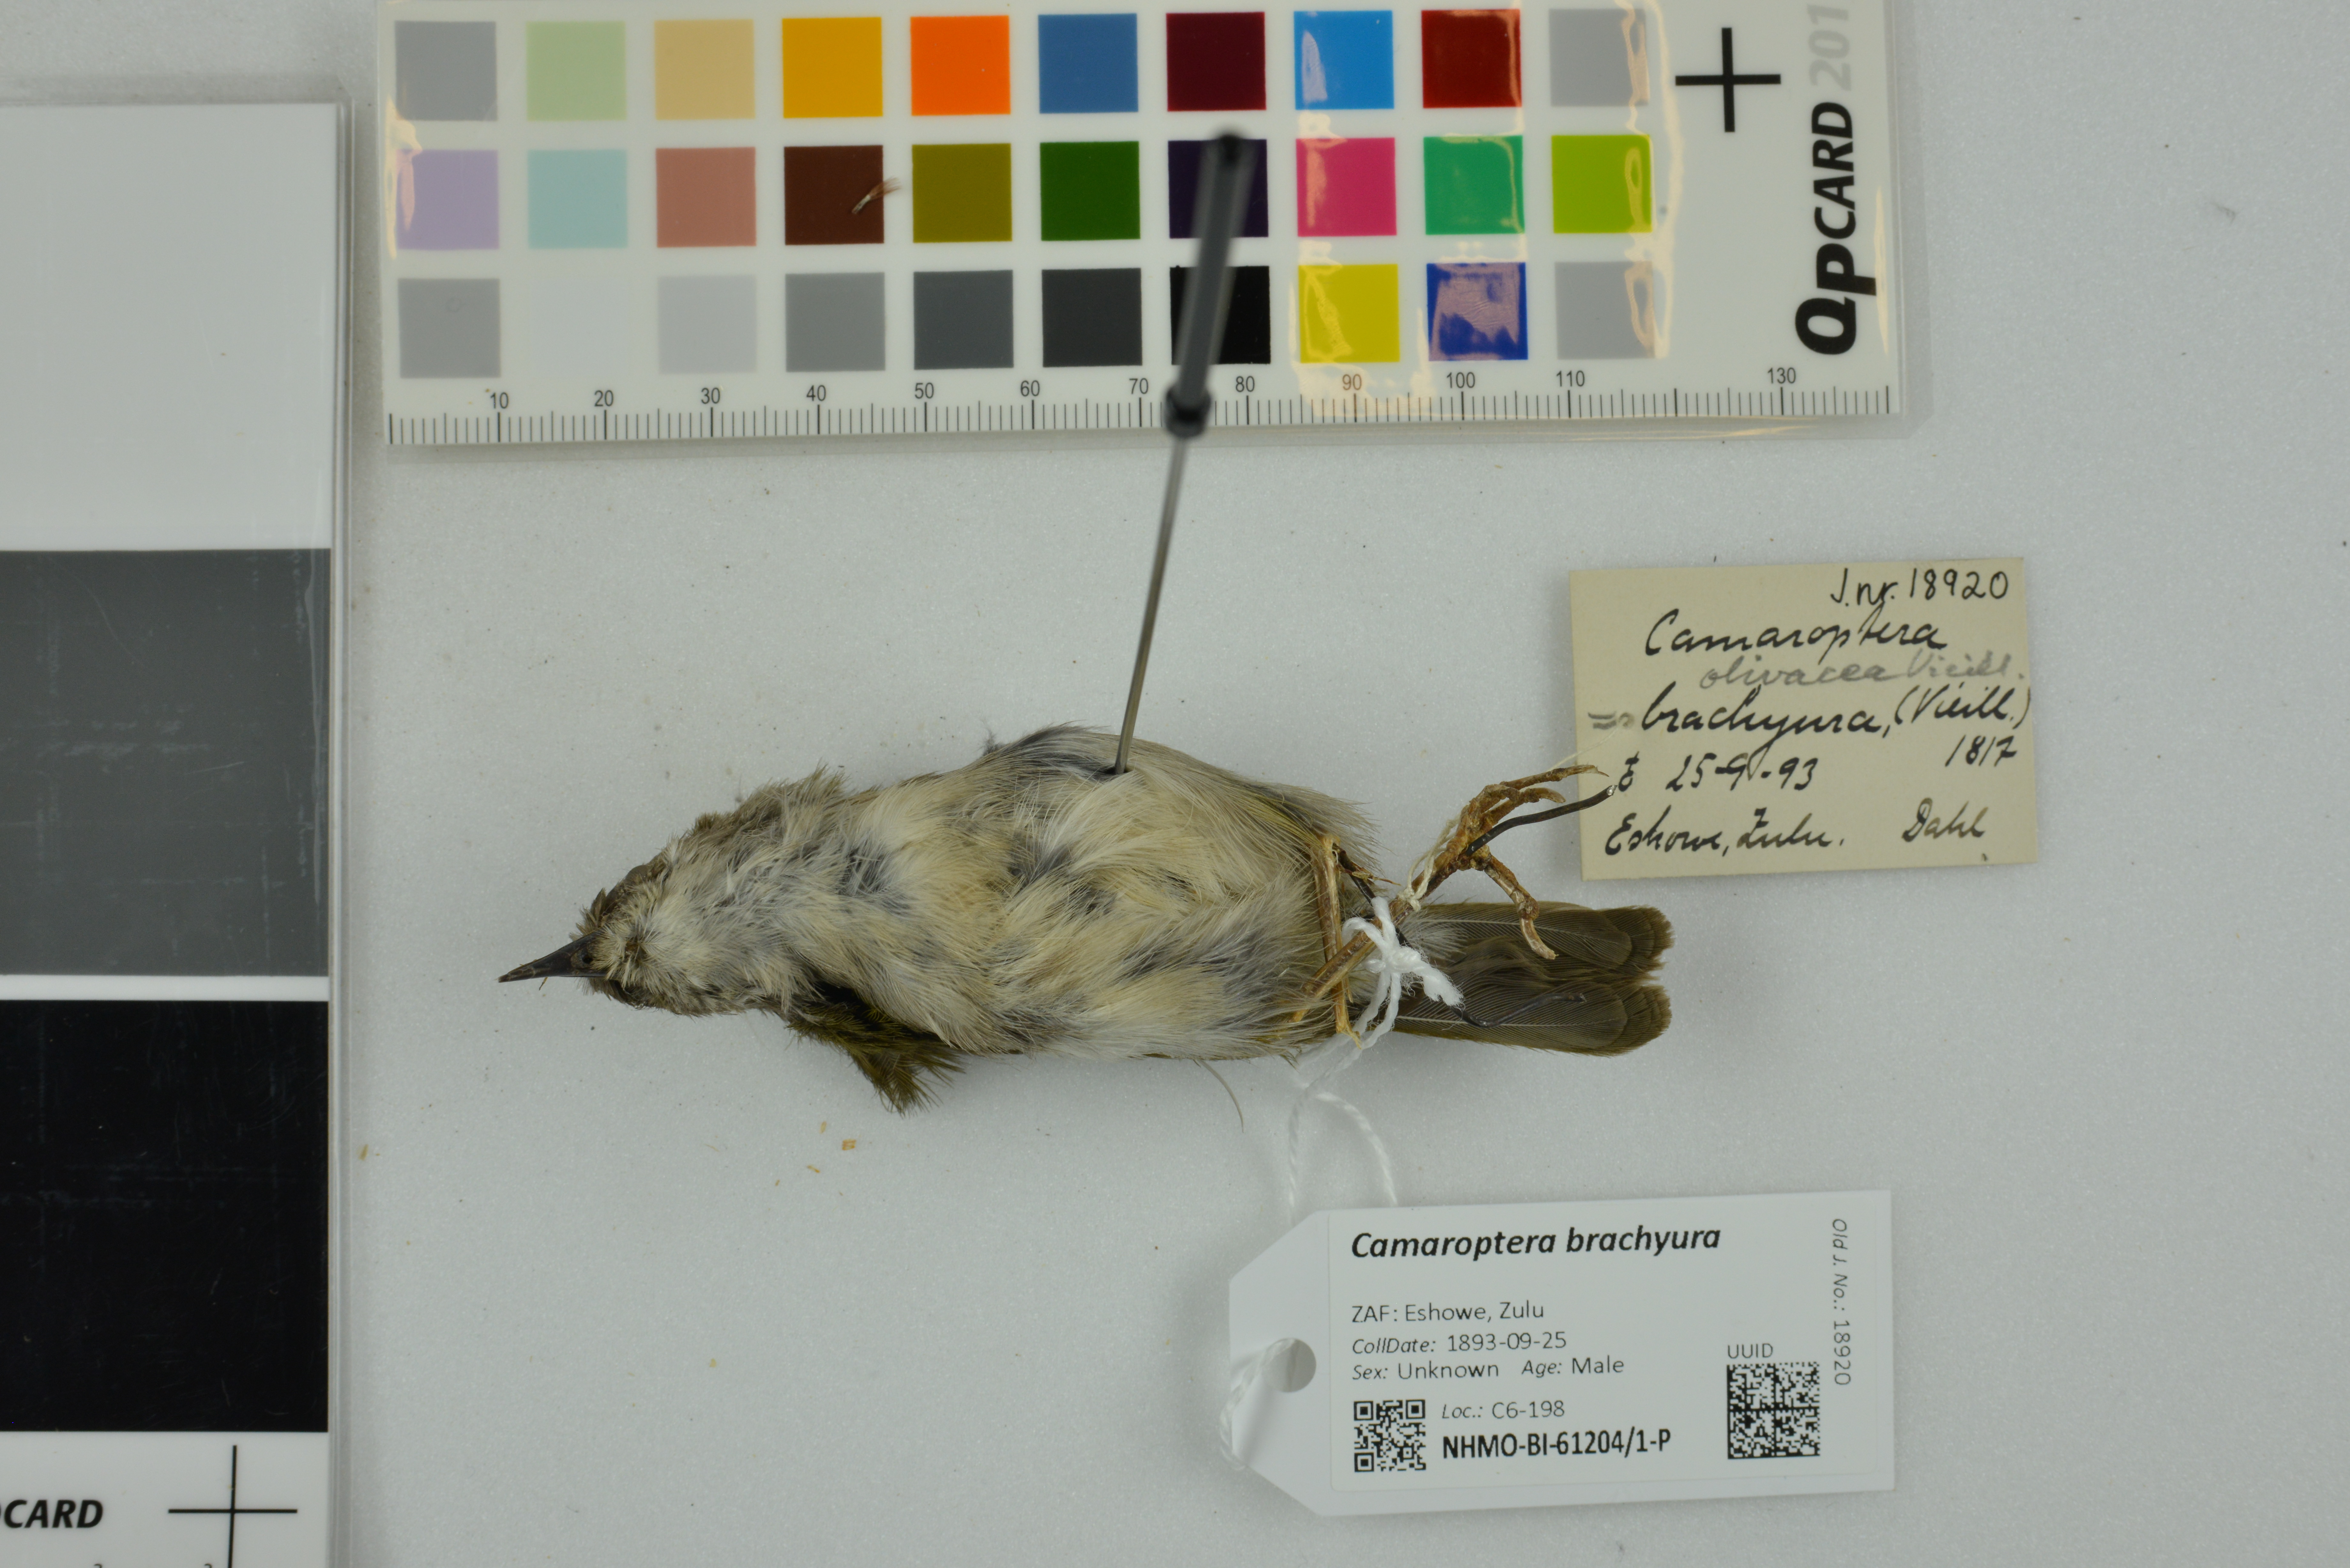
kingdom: Animalia
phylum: Chordata
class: Aves
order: Passeriformes
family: Cisticolidae
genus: Camaroptera
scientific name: Camaroptera brachyura
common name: Green-backed camaroptera
